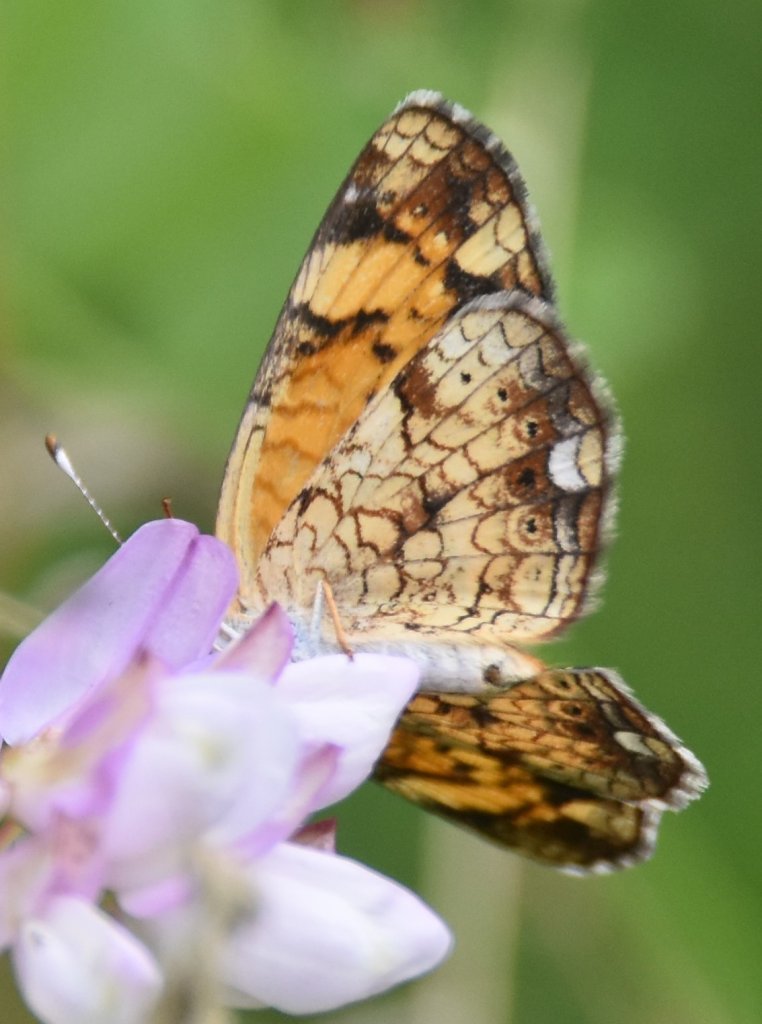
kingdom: Animalia
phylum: Arthropoda
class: Insecta
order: Lepidoptera
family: Nymphalidae
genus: Phyciodes
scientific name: Phyciodes tharos
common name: Pearl Crescent
